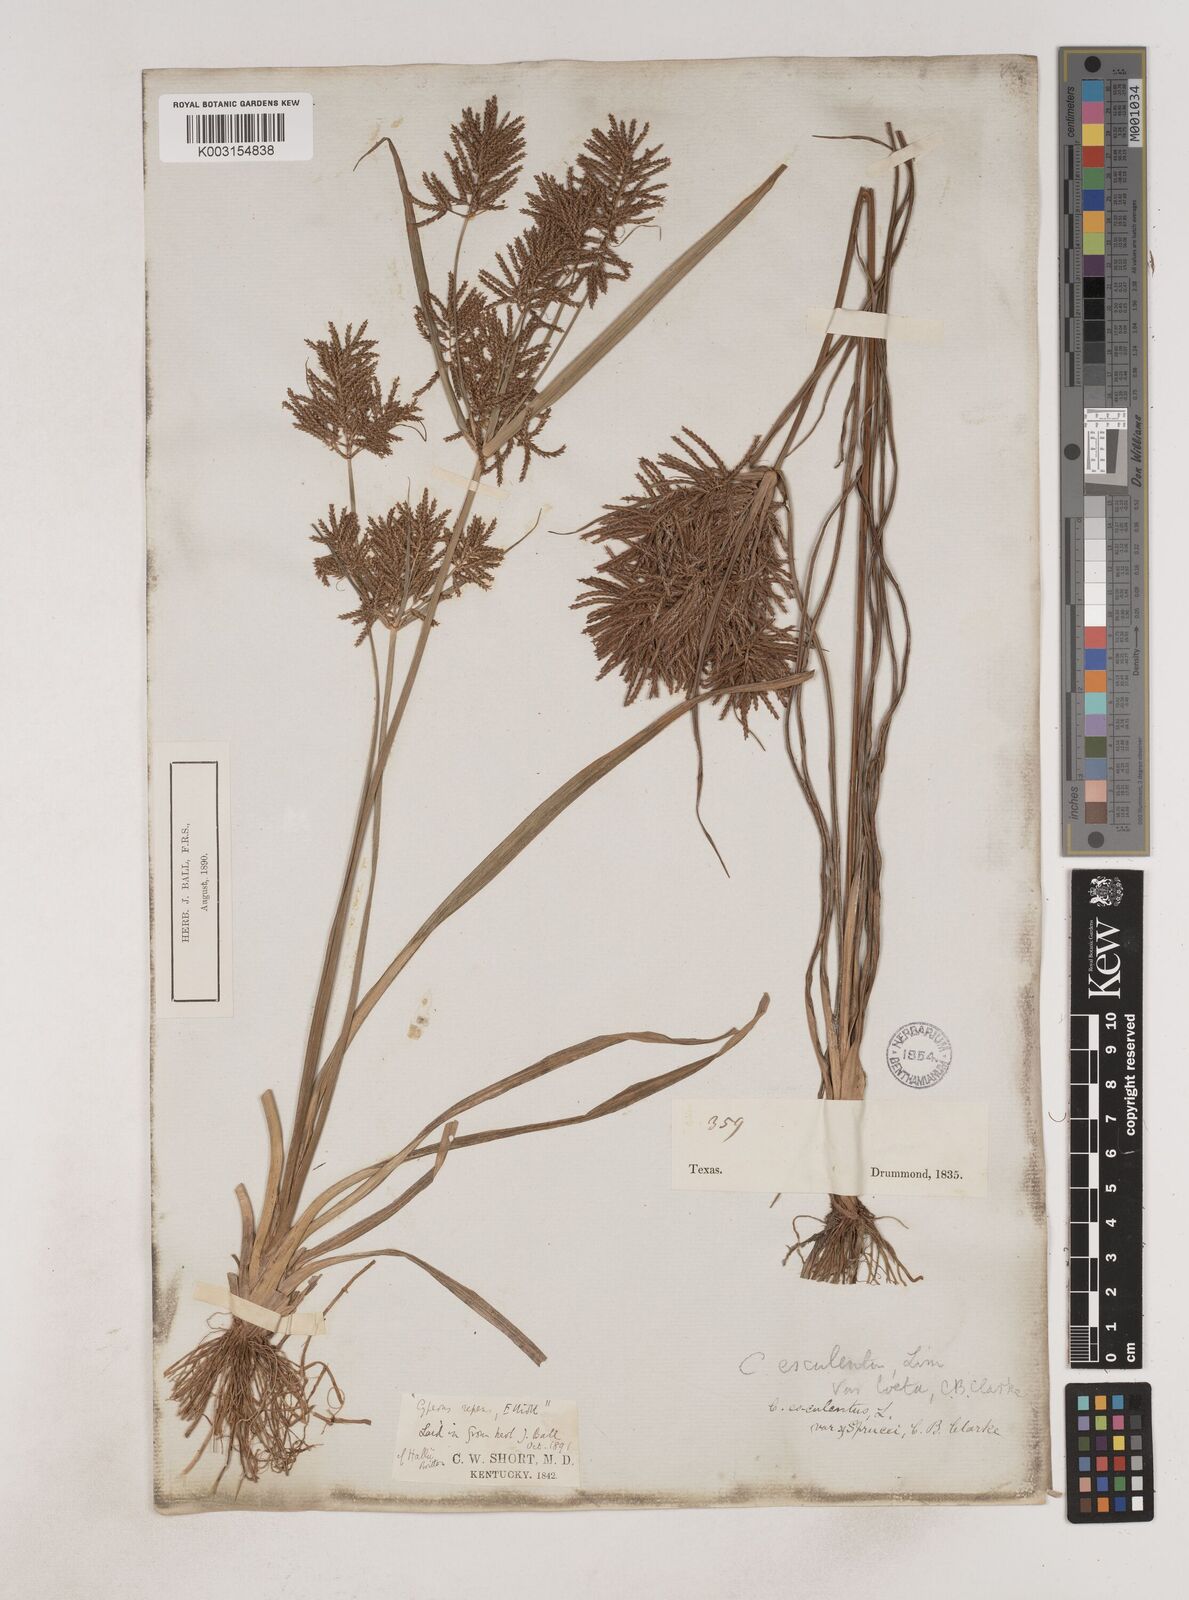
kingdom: Plantae
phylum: Tracheophyta
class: Liliopsida
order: Poales
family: Cyperaceae
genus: Cyperus
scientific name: Cyperus esculentus
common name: Yellow nutsedge
